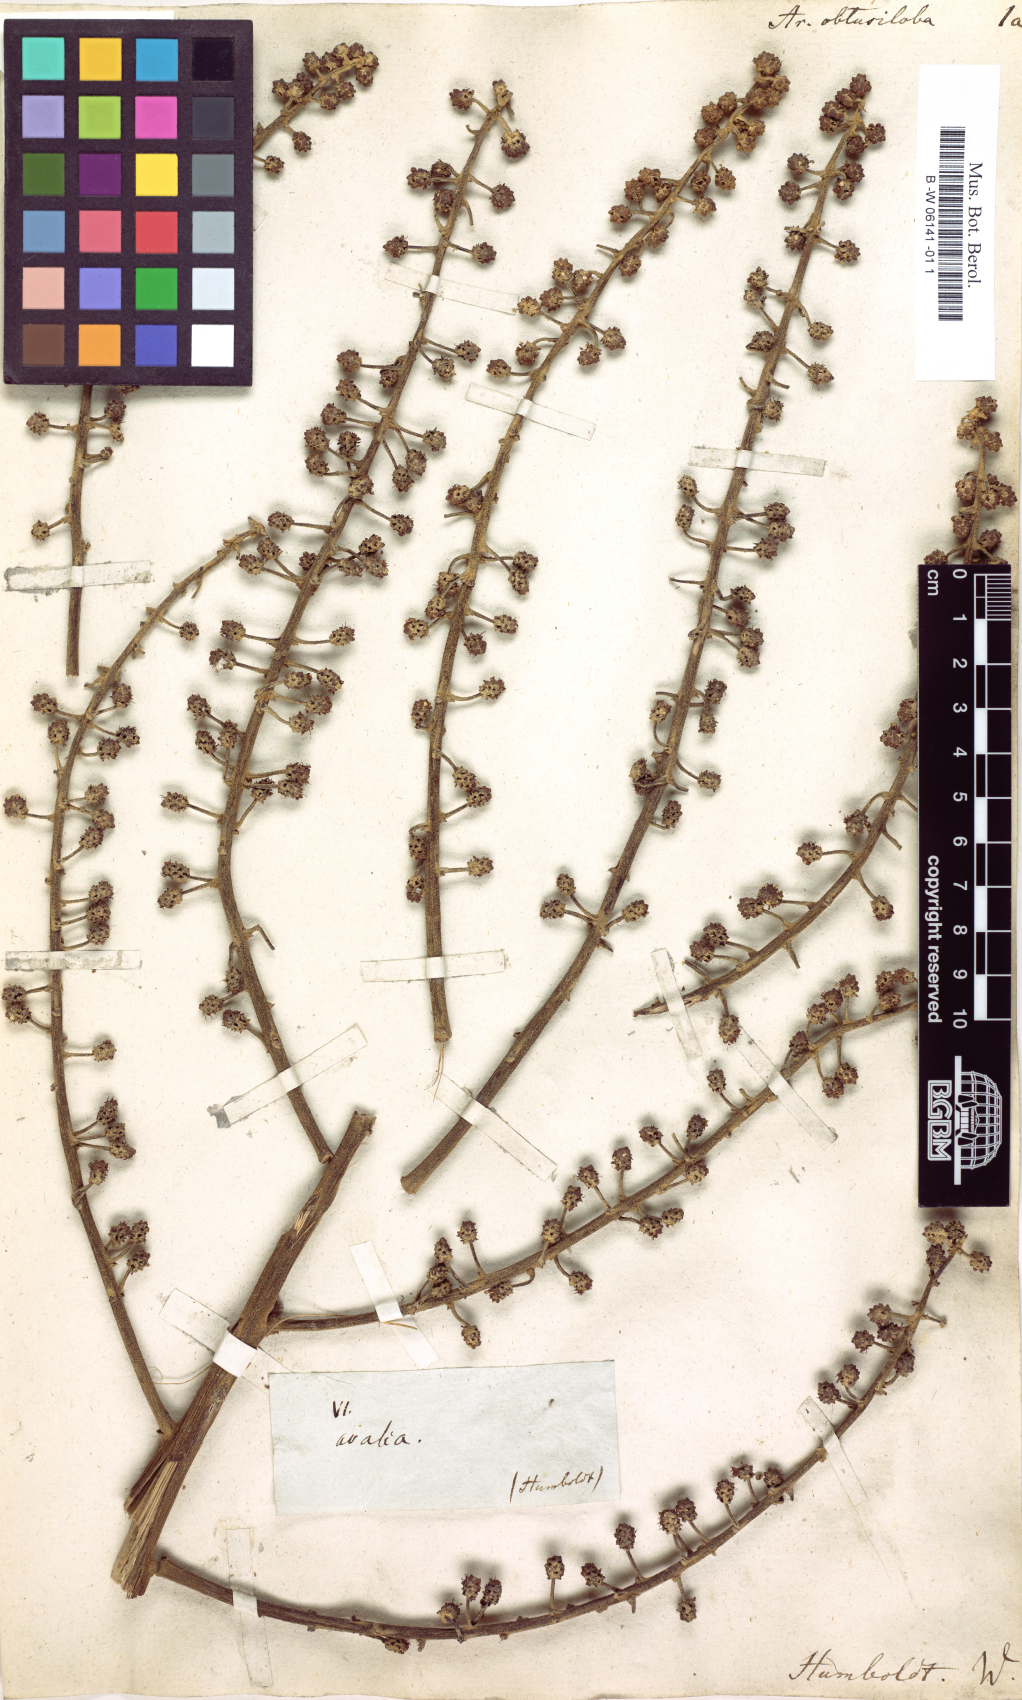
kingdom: Plantae
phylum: Tracheophyta
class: Magnoliopsida
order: Apiales
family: Araliaceae
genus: Oreopanax
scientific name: Oreopanax obtusilobus
